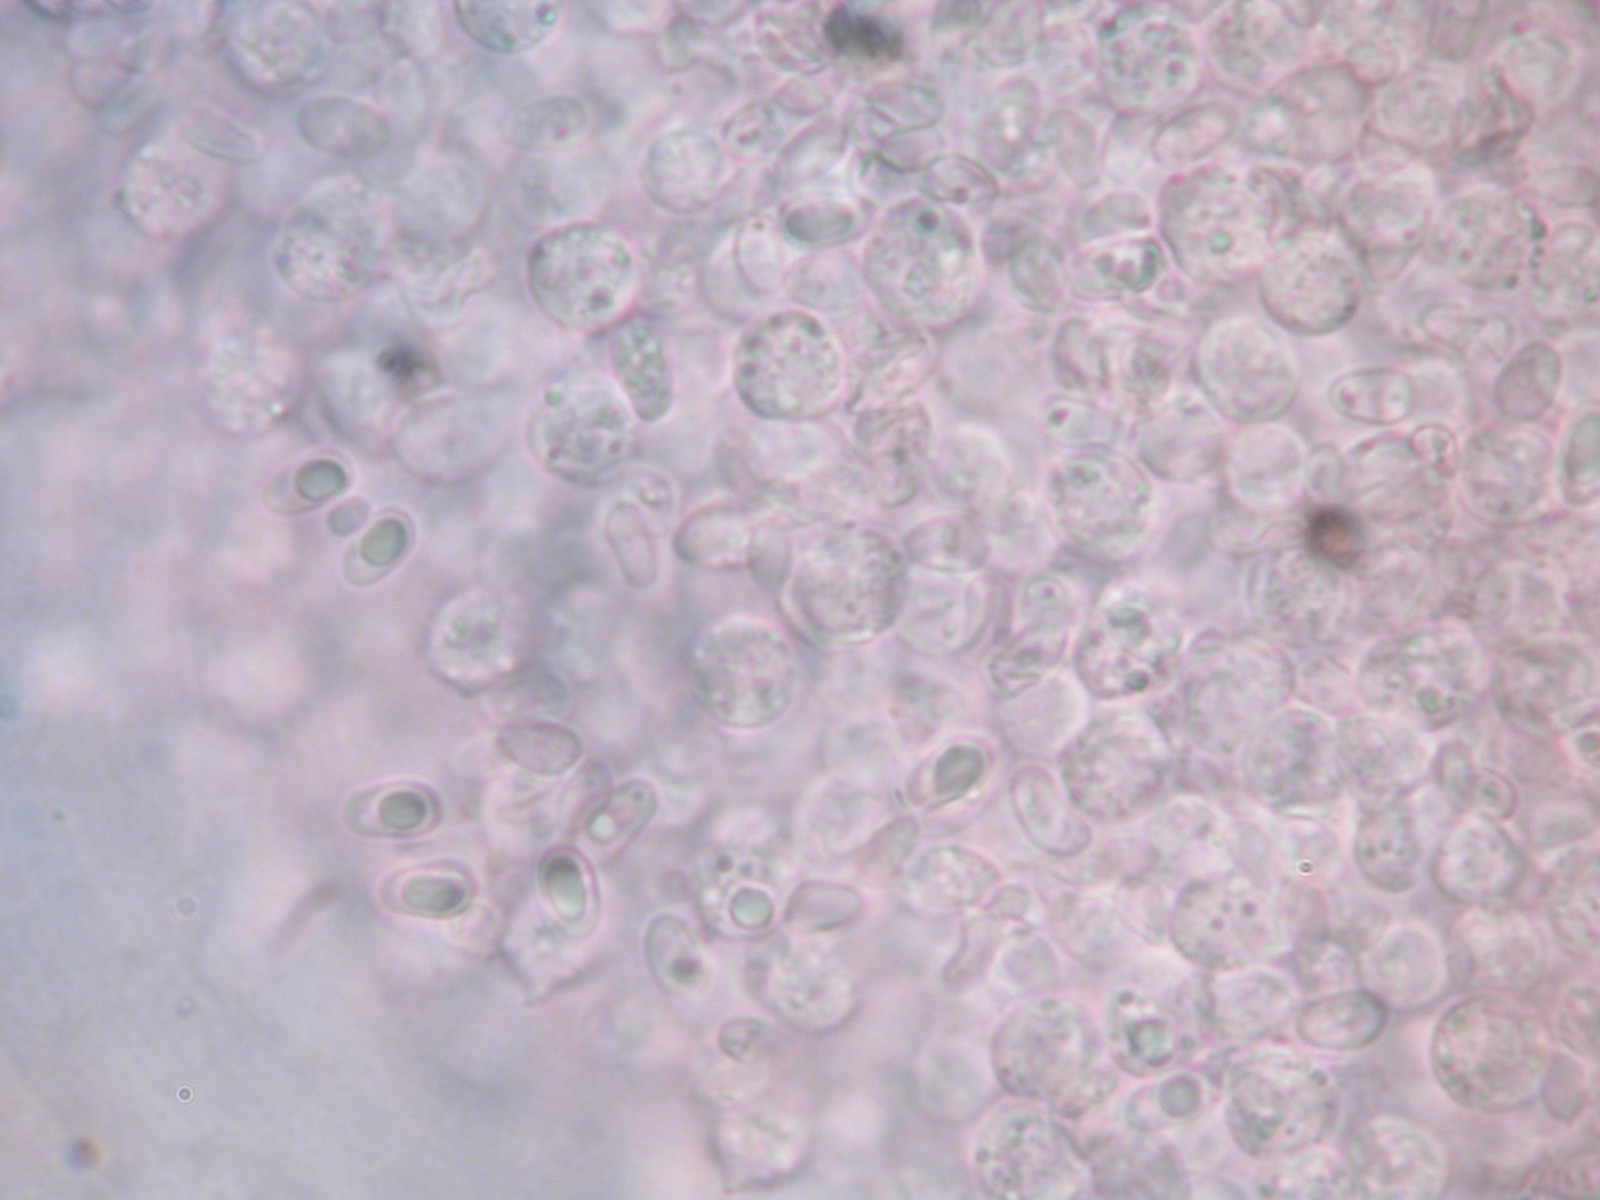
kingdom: Fungi
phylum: Basidiomycota
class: Agaricomycetes
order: Agaricales
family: Lyophyllaceae
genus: Lyophyllum
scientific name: Lyophyllum
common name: gråblad
